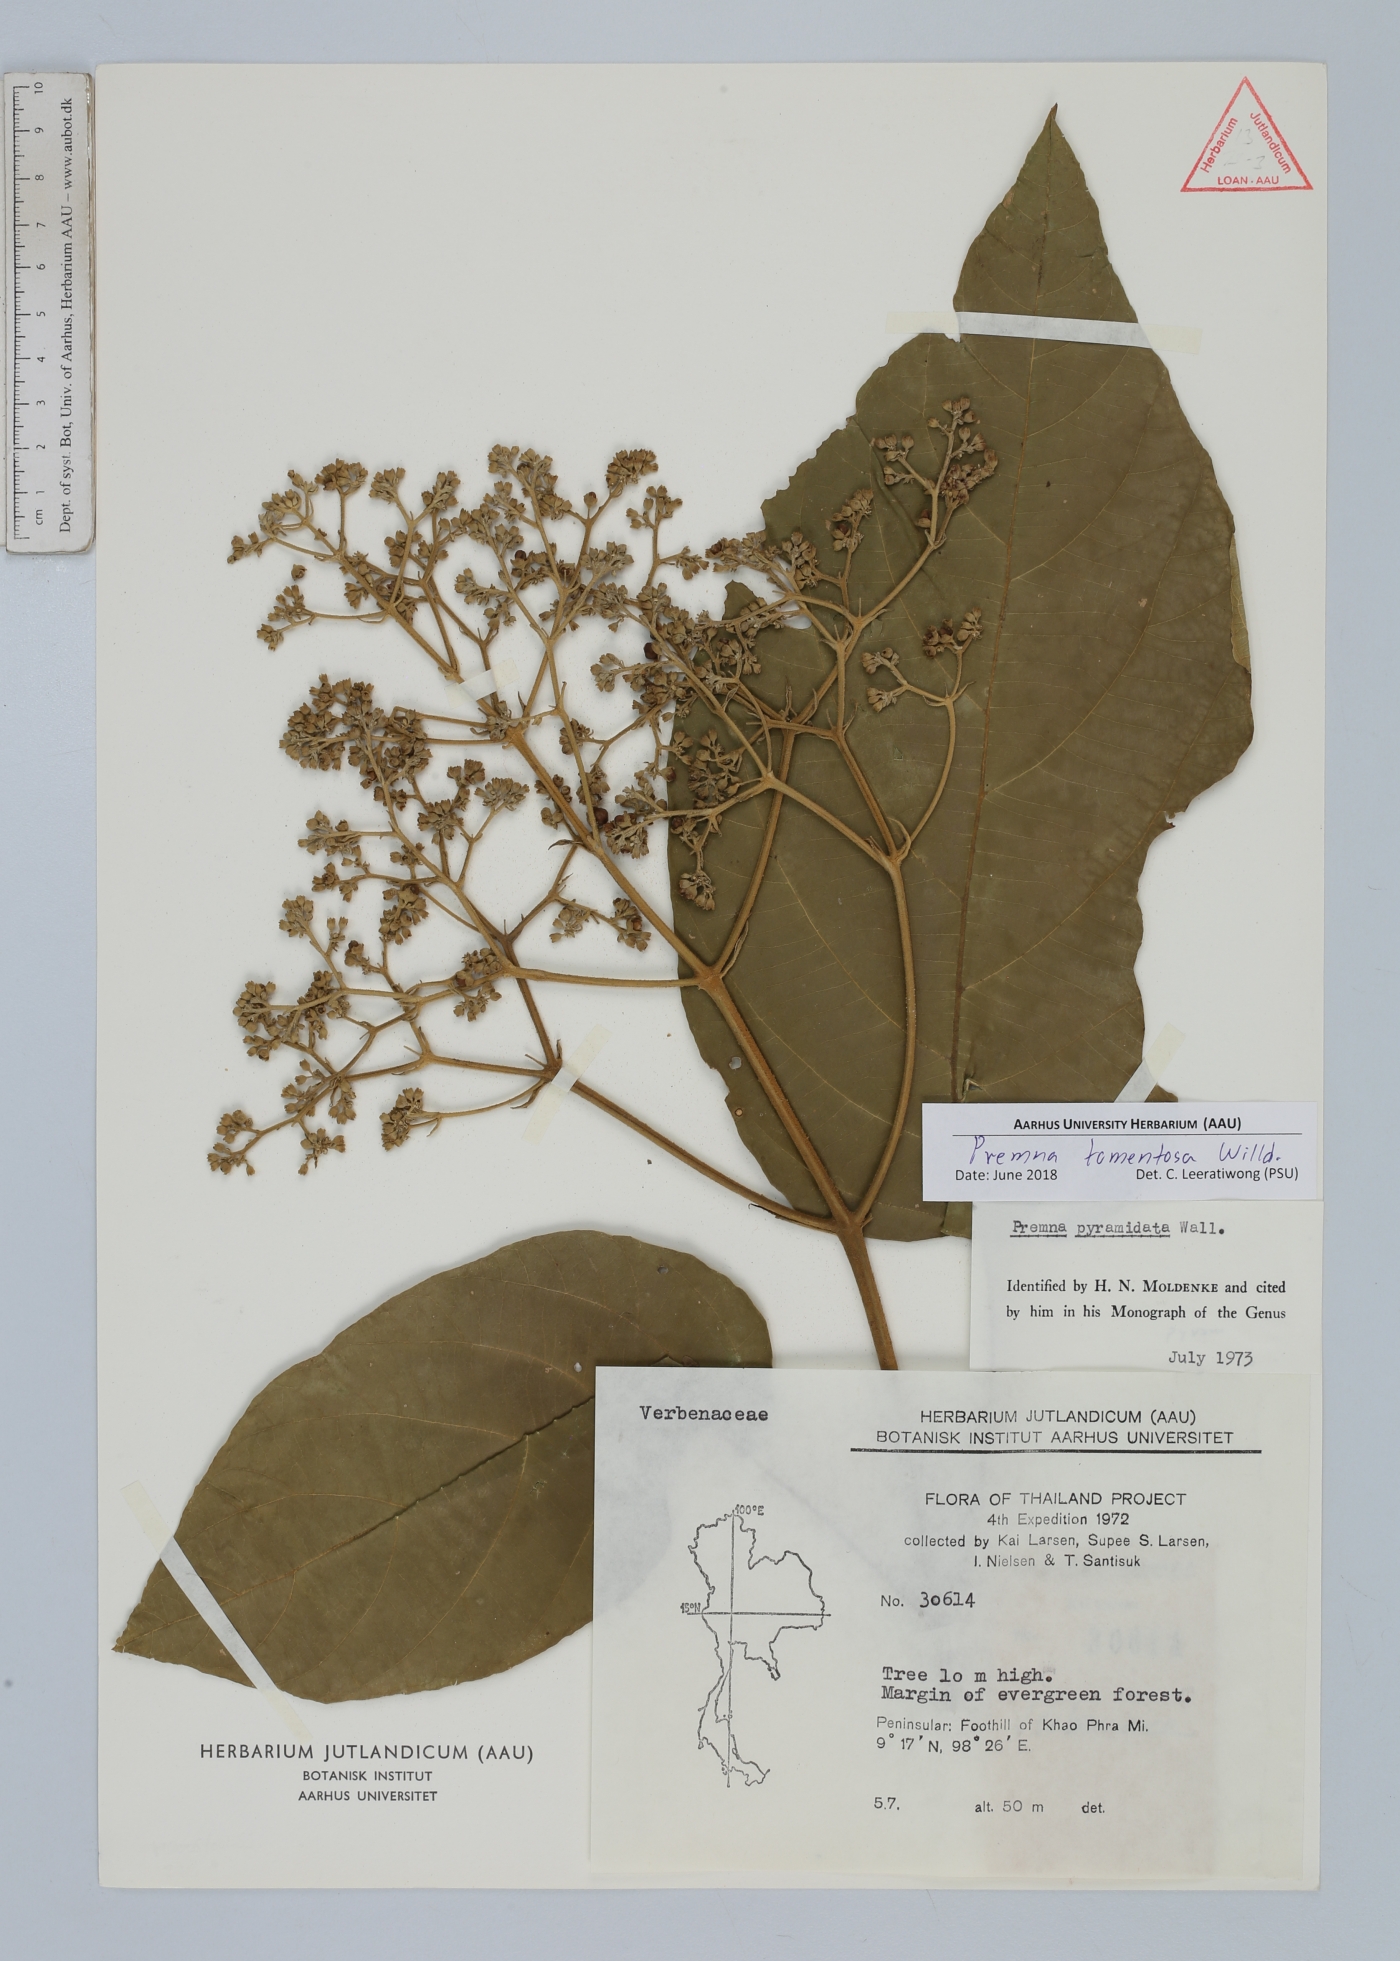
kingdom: Plantae
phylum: Tracheophyta
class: Magnoliopsida
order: Lamiales
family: Lamiaceae
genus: Premna
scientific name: Premna tomentosa
